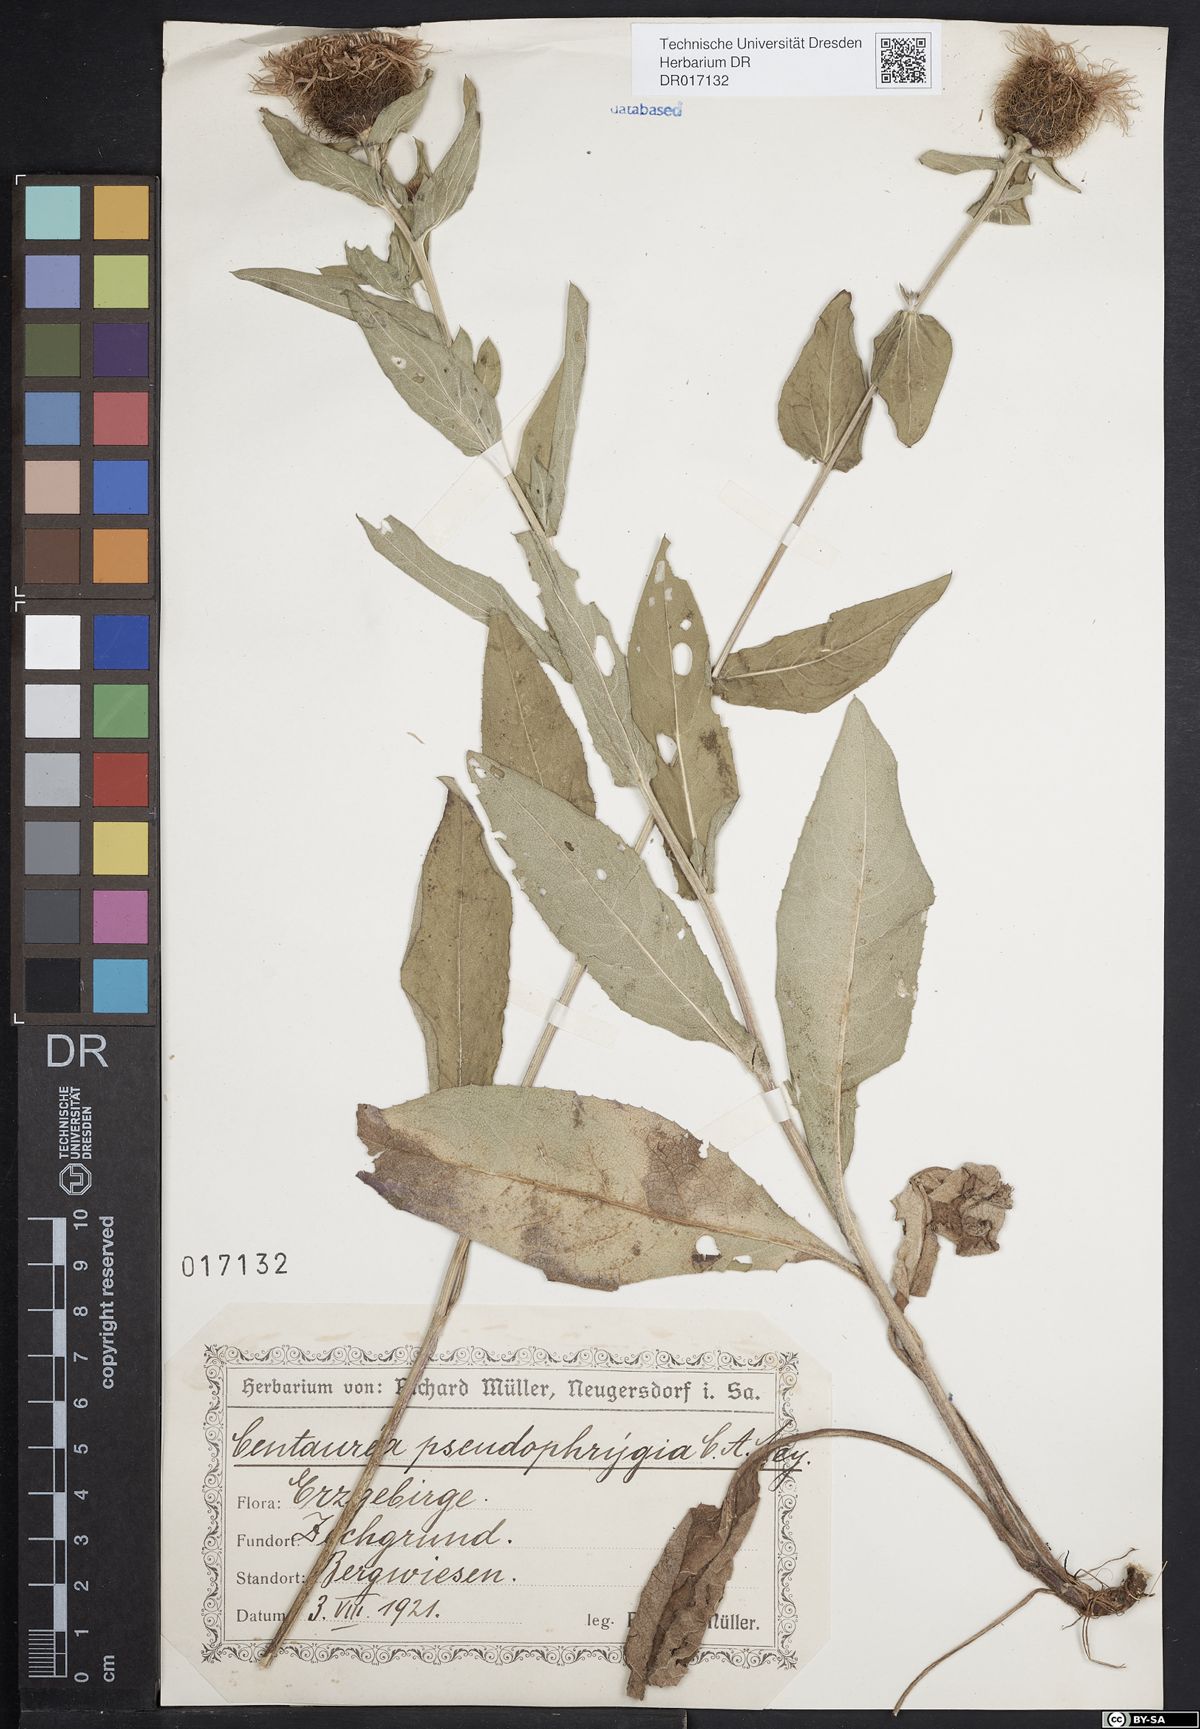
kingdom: Plantae
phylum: Tracheophyta
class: Magnoliopsida
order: Asterales
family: Asteraceae
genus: Centaurea
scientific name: Centaurea pseudophrygia
